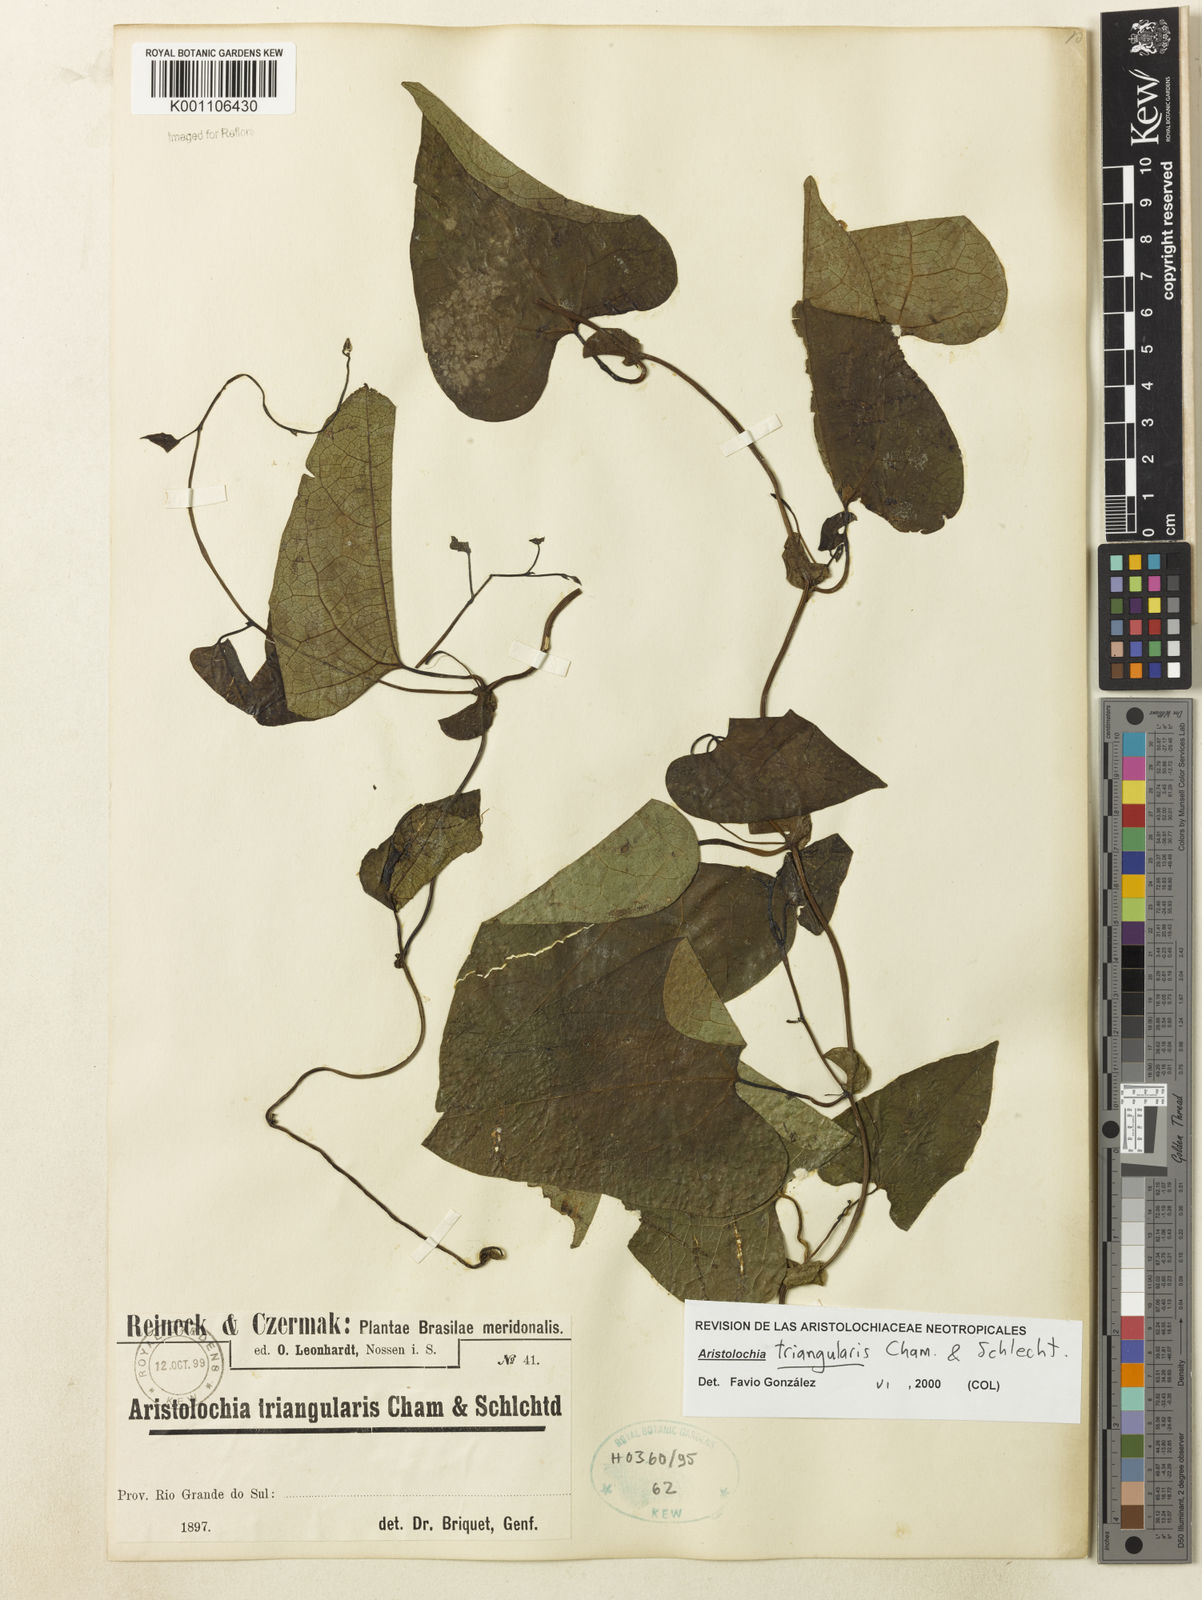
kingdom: Plantae
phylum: Tracheophyta
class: Magnoliopsida
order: Piperales
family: Aristolochiaceae
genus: Aristolochia
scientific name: Aristolochia triangularis
